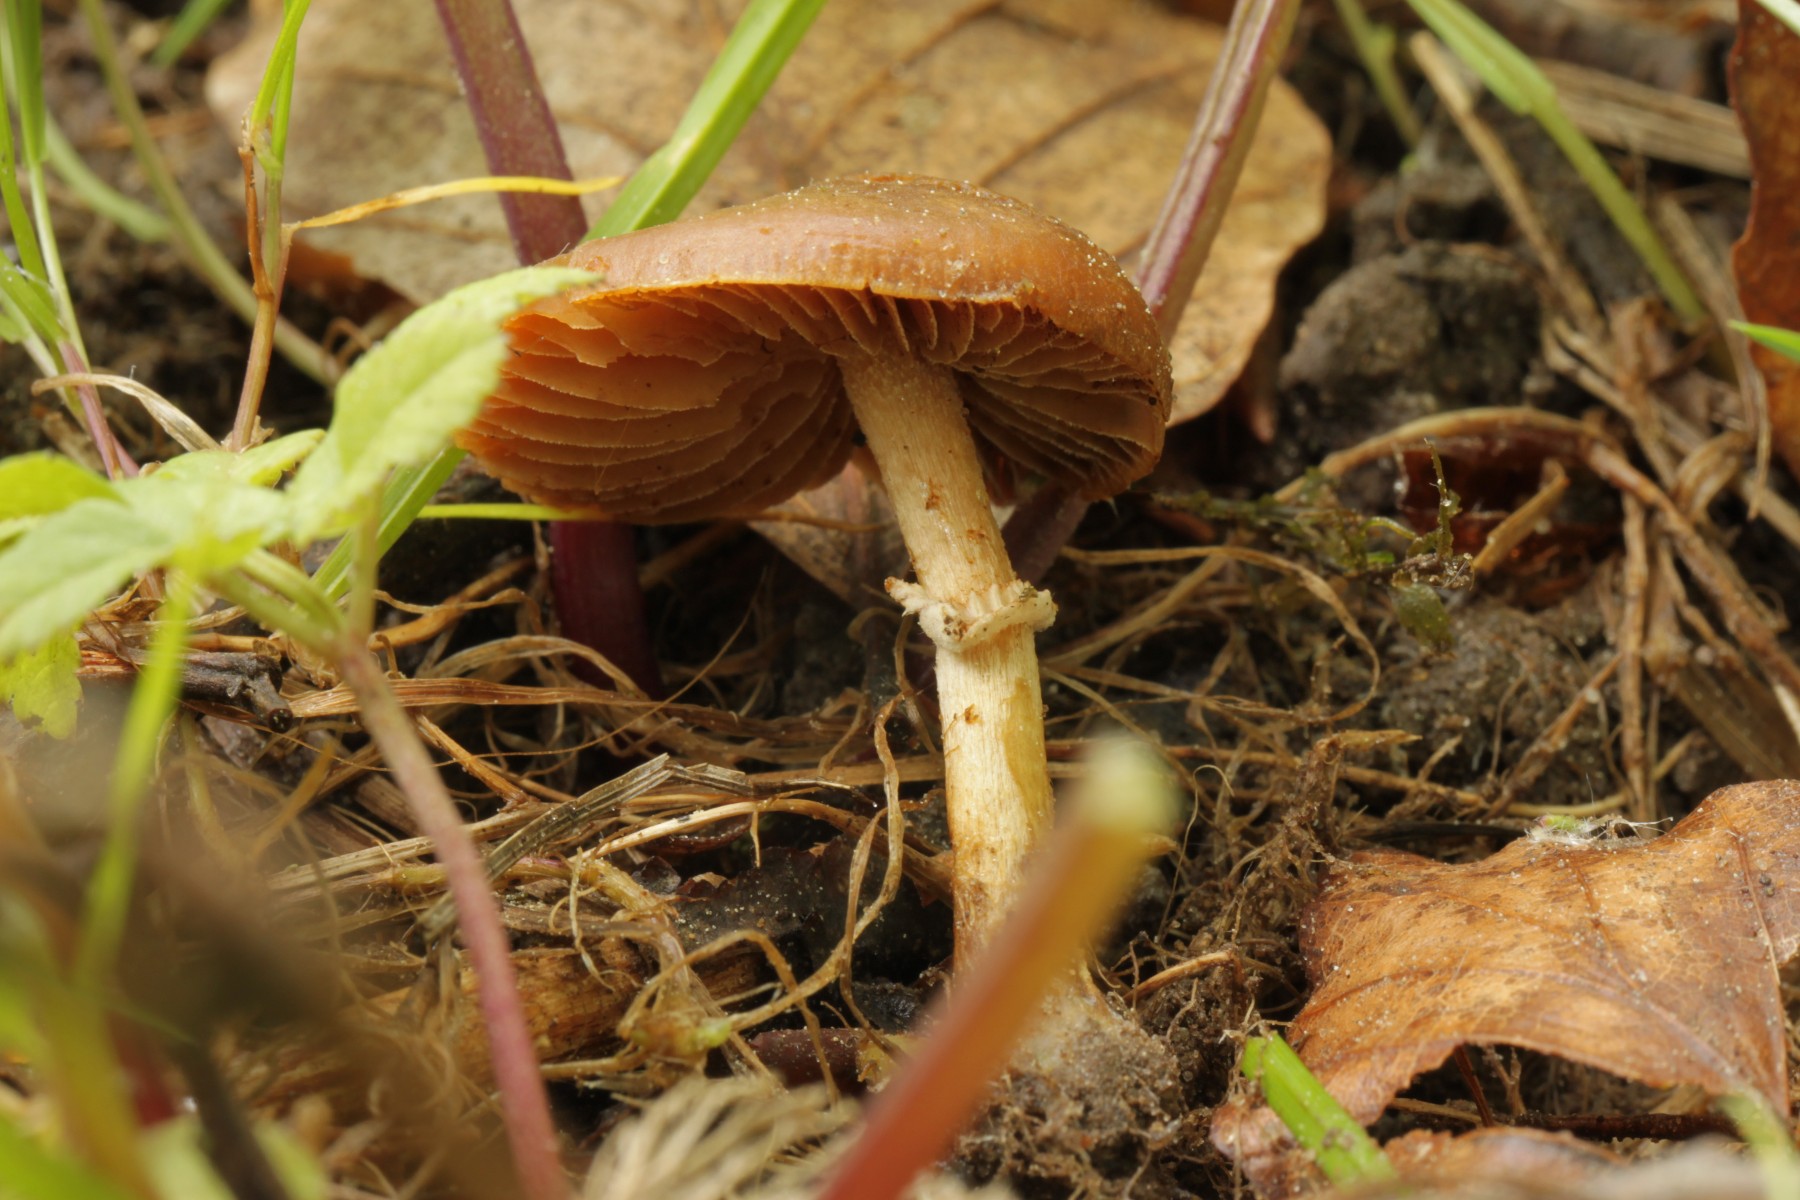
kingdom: Fungi
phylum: Basidiomycota
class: Agaricomycetes
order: Agaricales
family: Bolbitiaceae
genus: Conocybe
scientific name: Conocybe aporos
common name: tidlig dansehat
